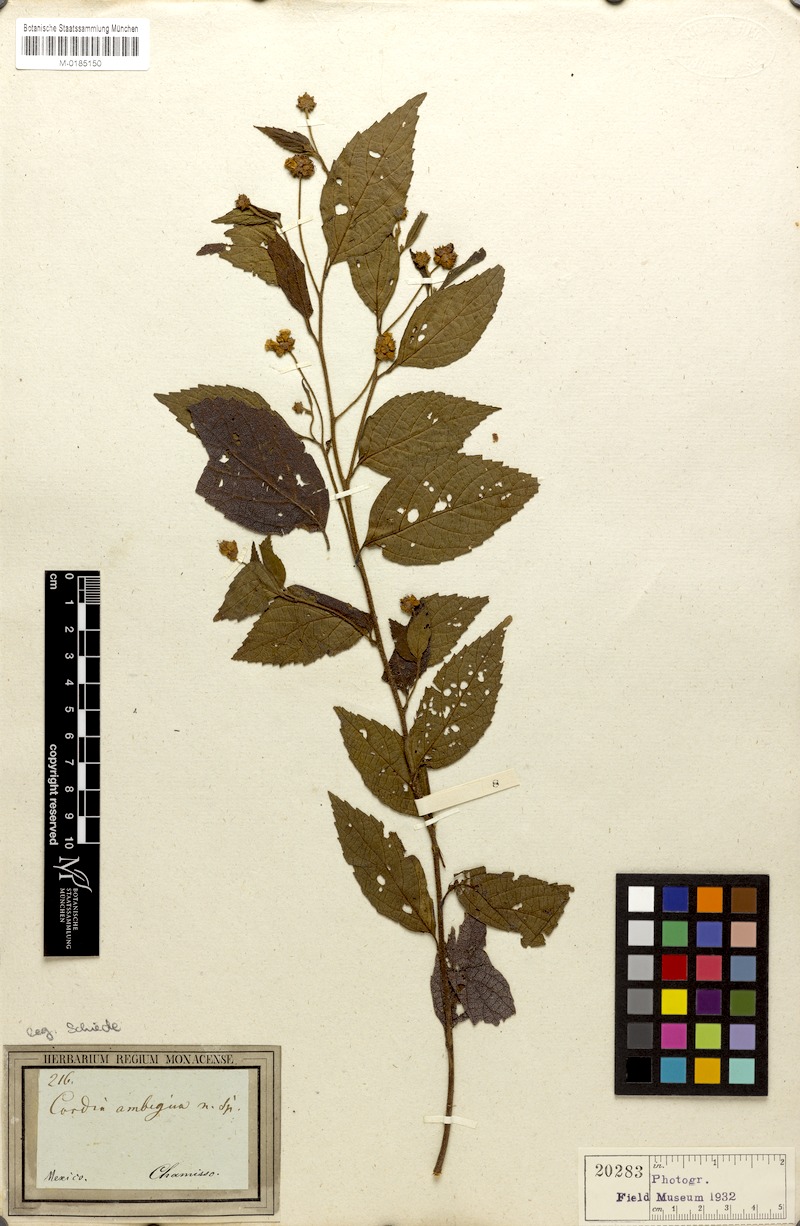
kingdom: Plantae
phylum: Tracheophyta
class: Magnoliopsida
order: Boraginales
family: Cordiaceae
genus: Varronia
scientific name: Varronia ambigua
